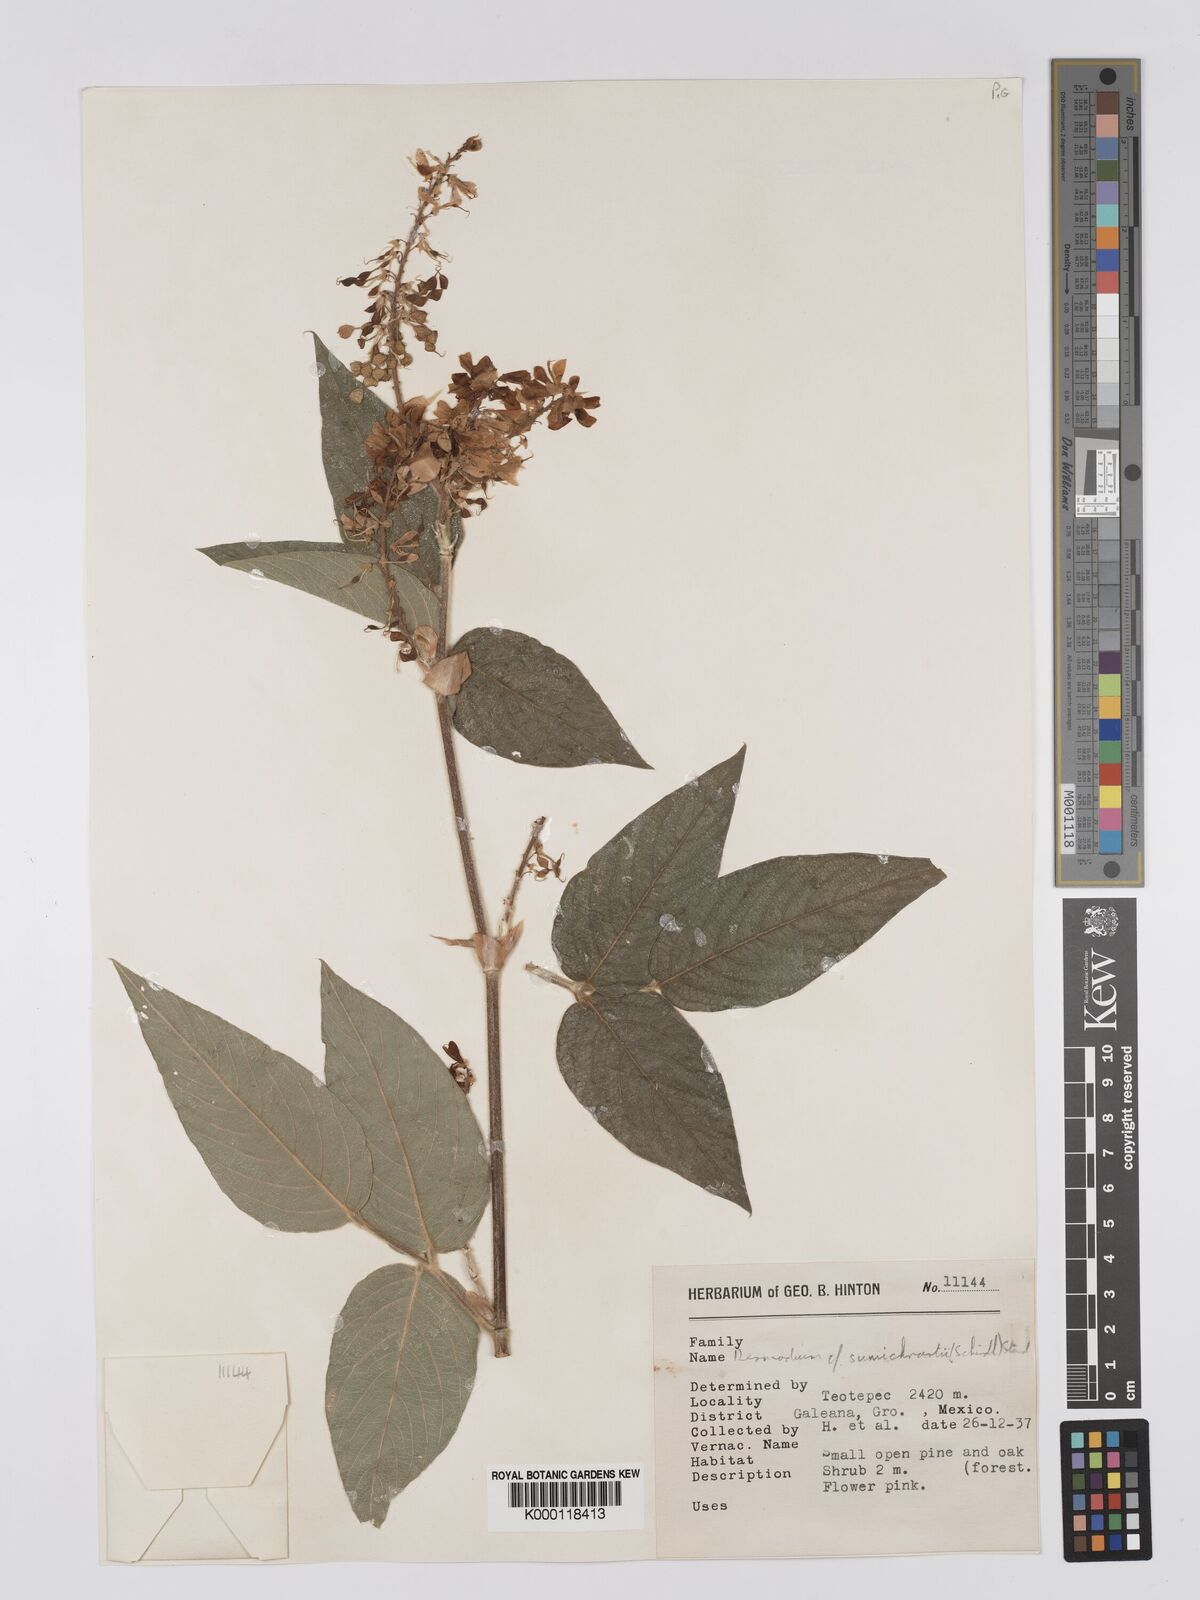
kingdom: Plantae
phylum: Tracheophyta
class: Magnoliopsida
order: Fabales
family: Fabaceae
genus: Desmodium
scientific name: Desmodium sumichrastii
